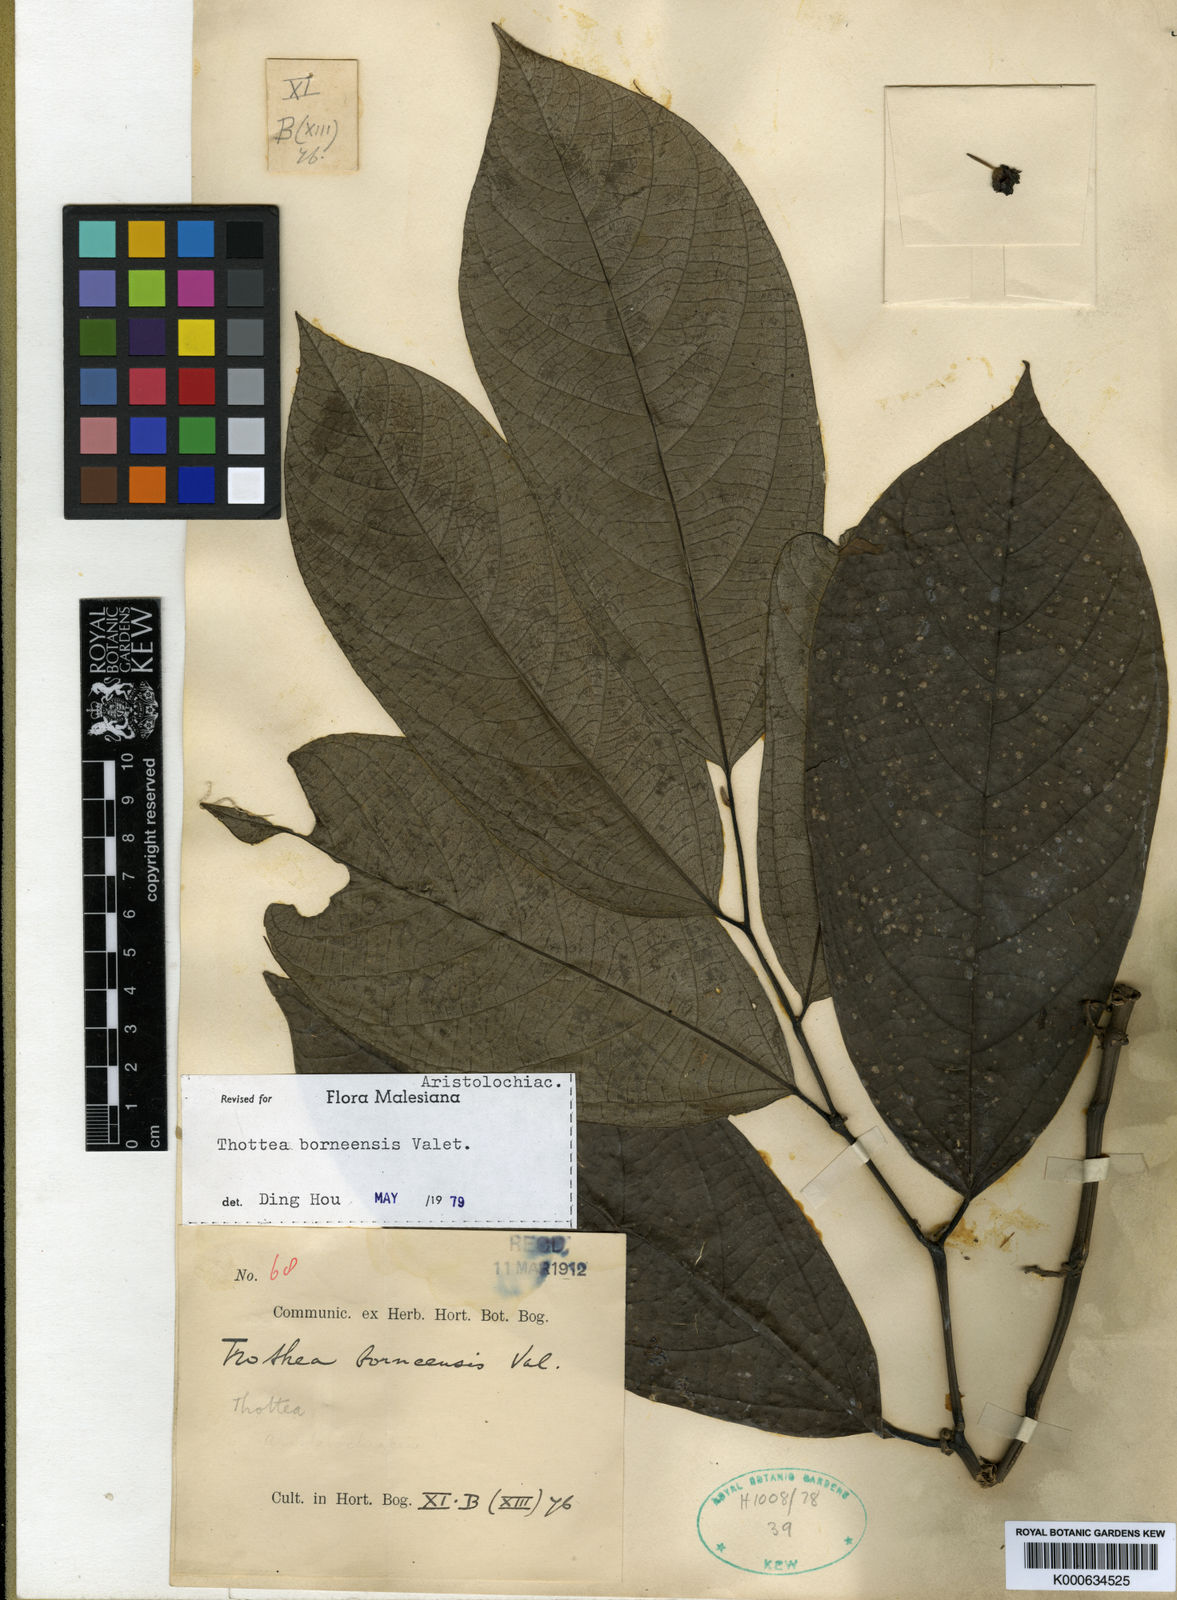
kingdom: Plantae
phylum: Tracheophyta
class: Magnoliopsida
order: Piperales
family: Aristolochiaceae
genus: Thottea
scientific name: Thottea borneensis
